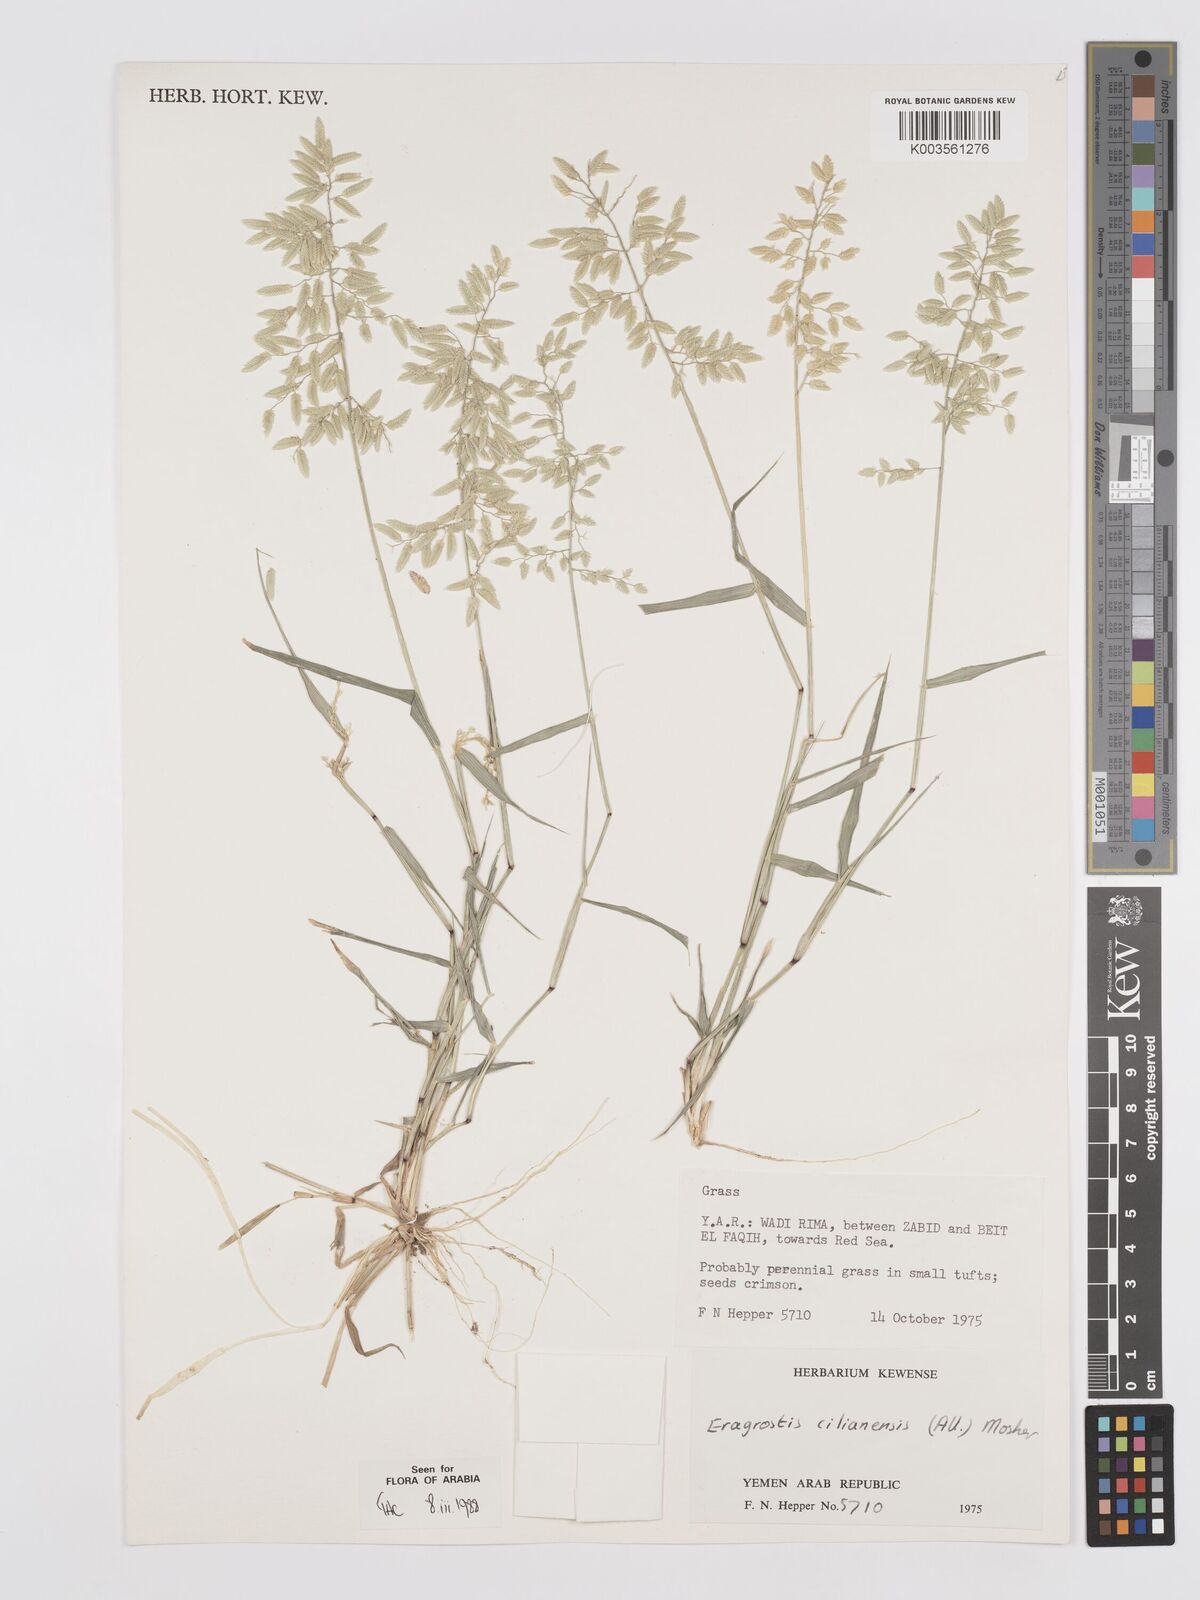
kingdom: Plantae
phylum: Tracheophyta
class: Liliopsida
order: Poales
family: Poaceae
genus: Eragrostis
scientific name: Eragrostis cilianensis
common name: Stinkgrass
